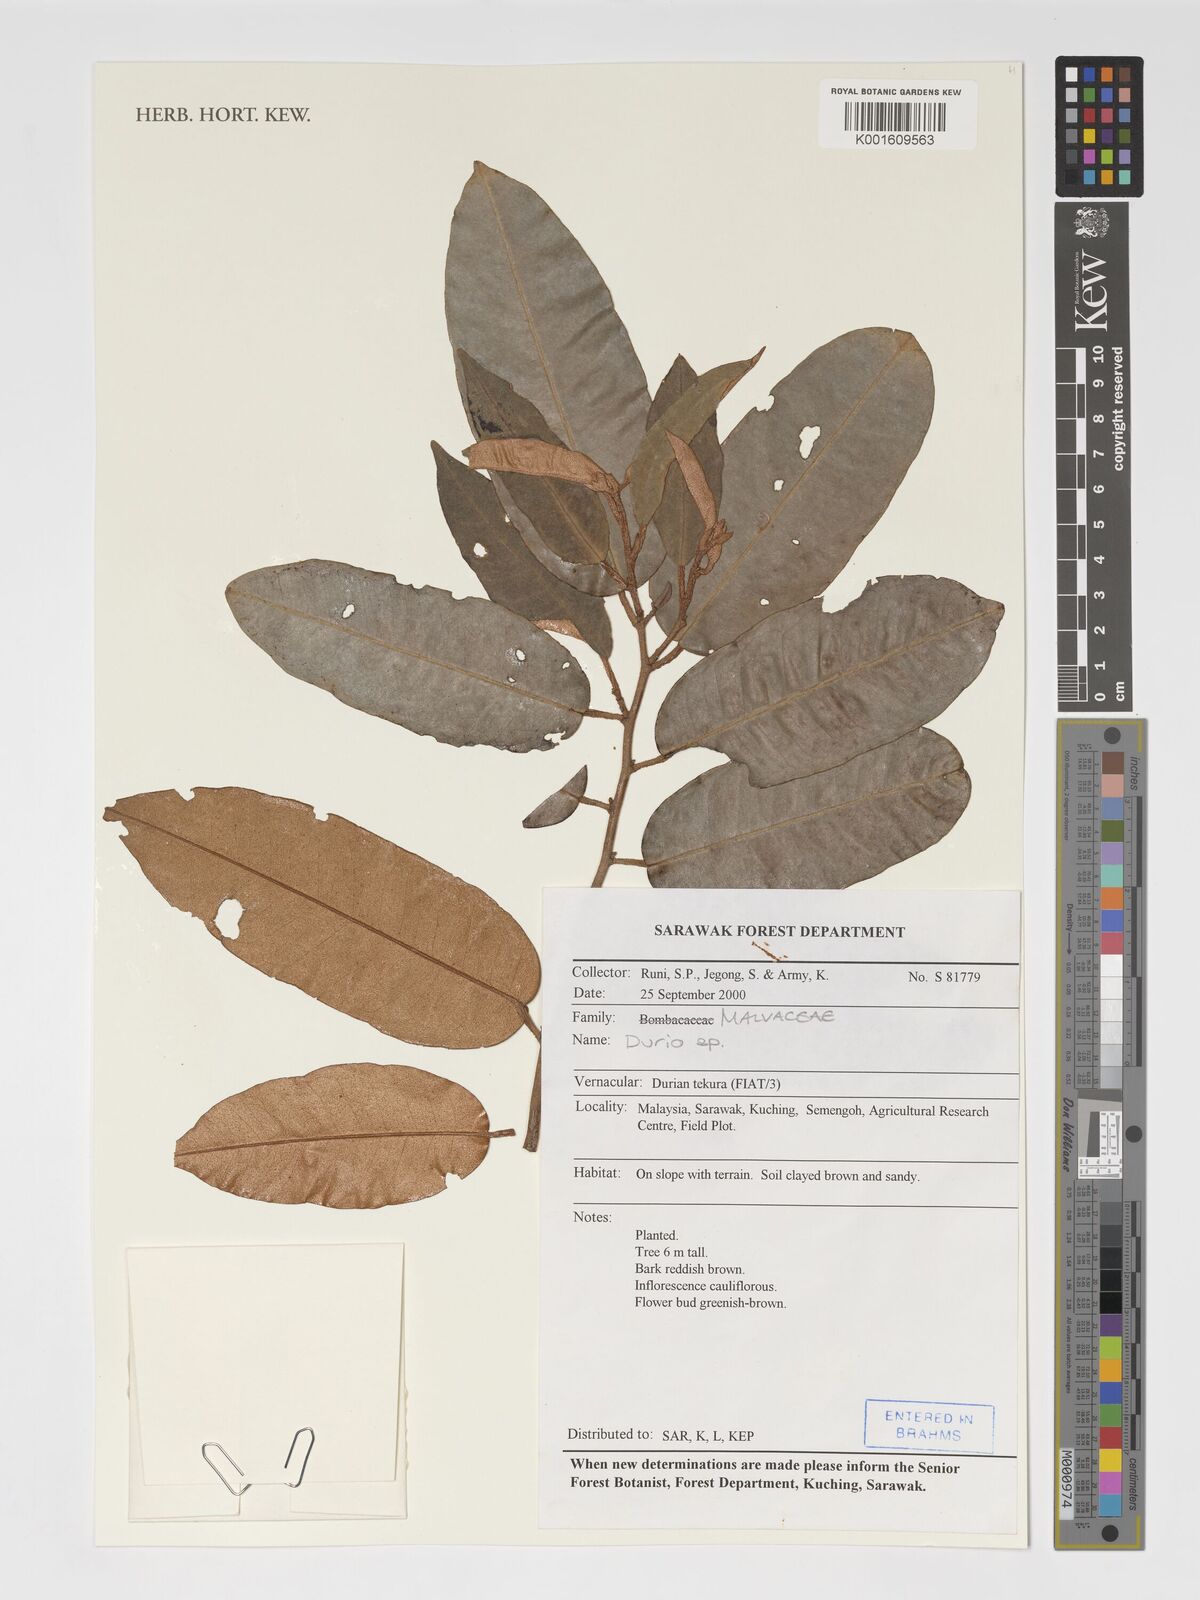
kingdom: Plantae
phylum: Tracheophyta
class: Magnoliopsida
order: Malvales
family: Malvaceae
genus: Durio
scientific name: Durio
